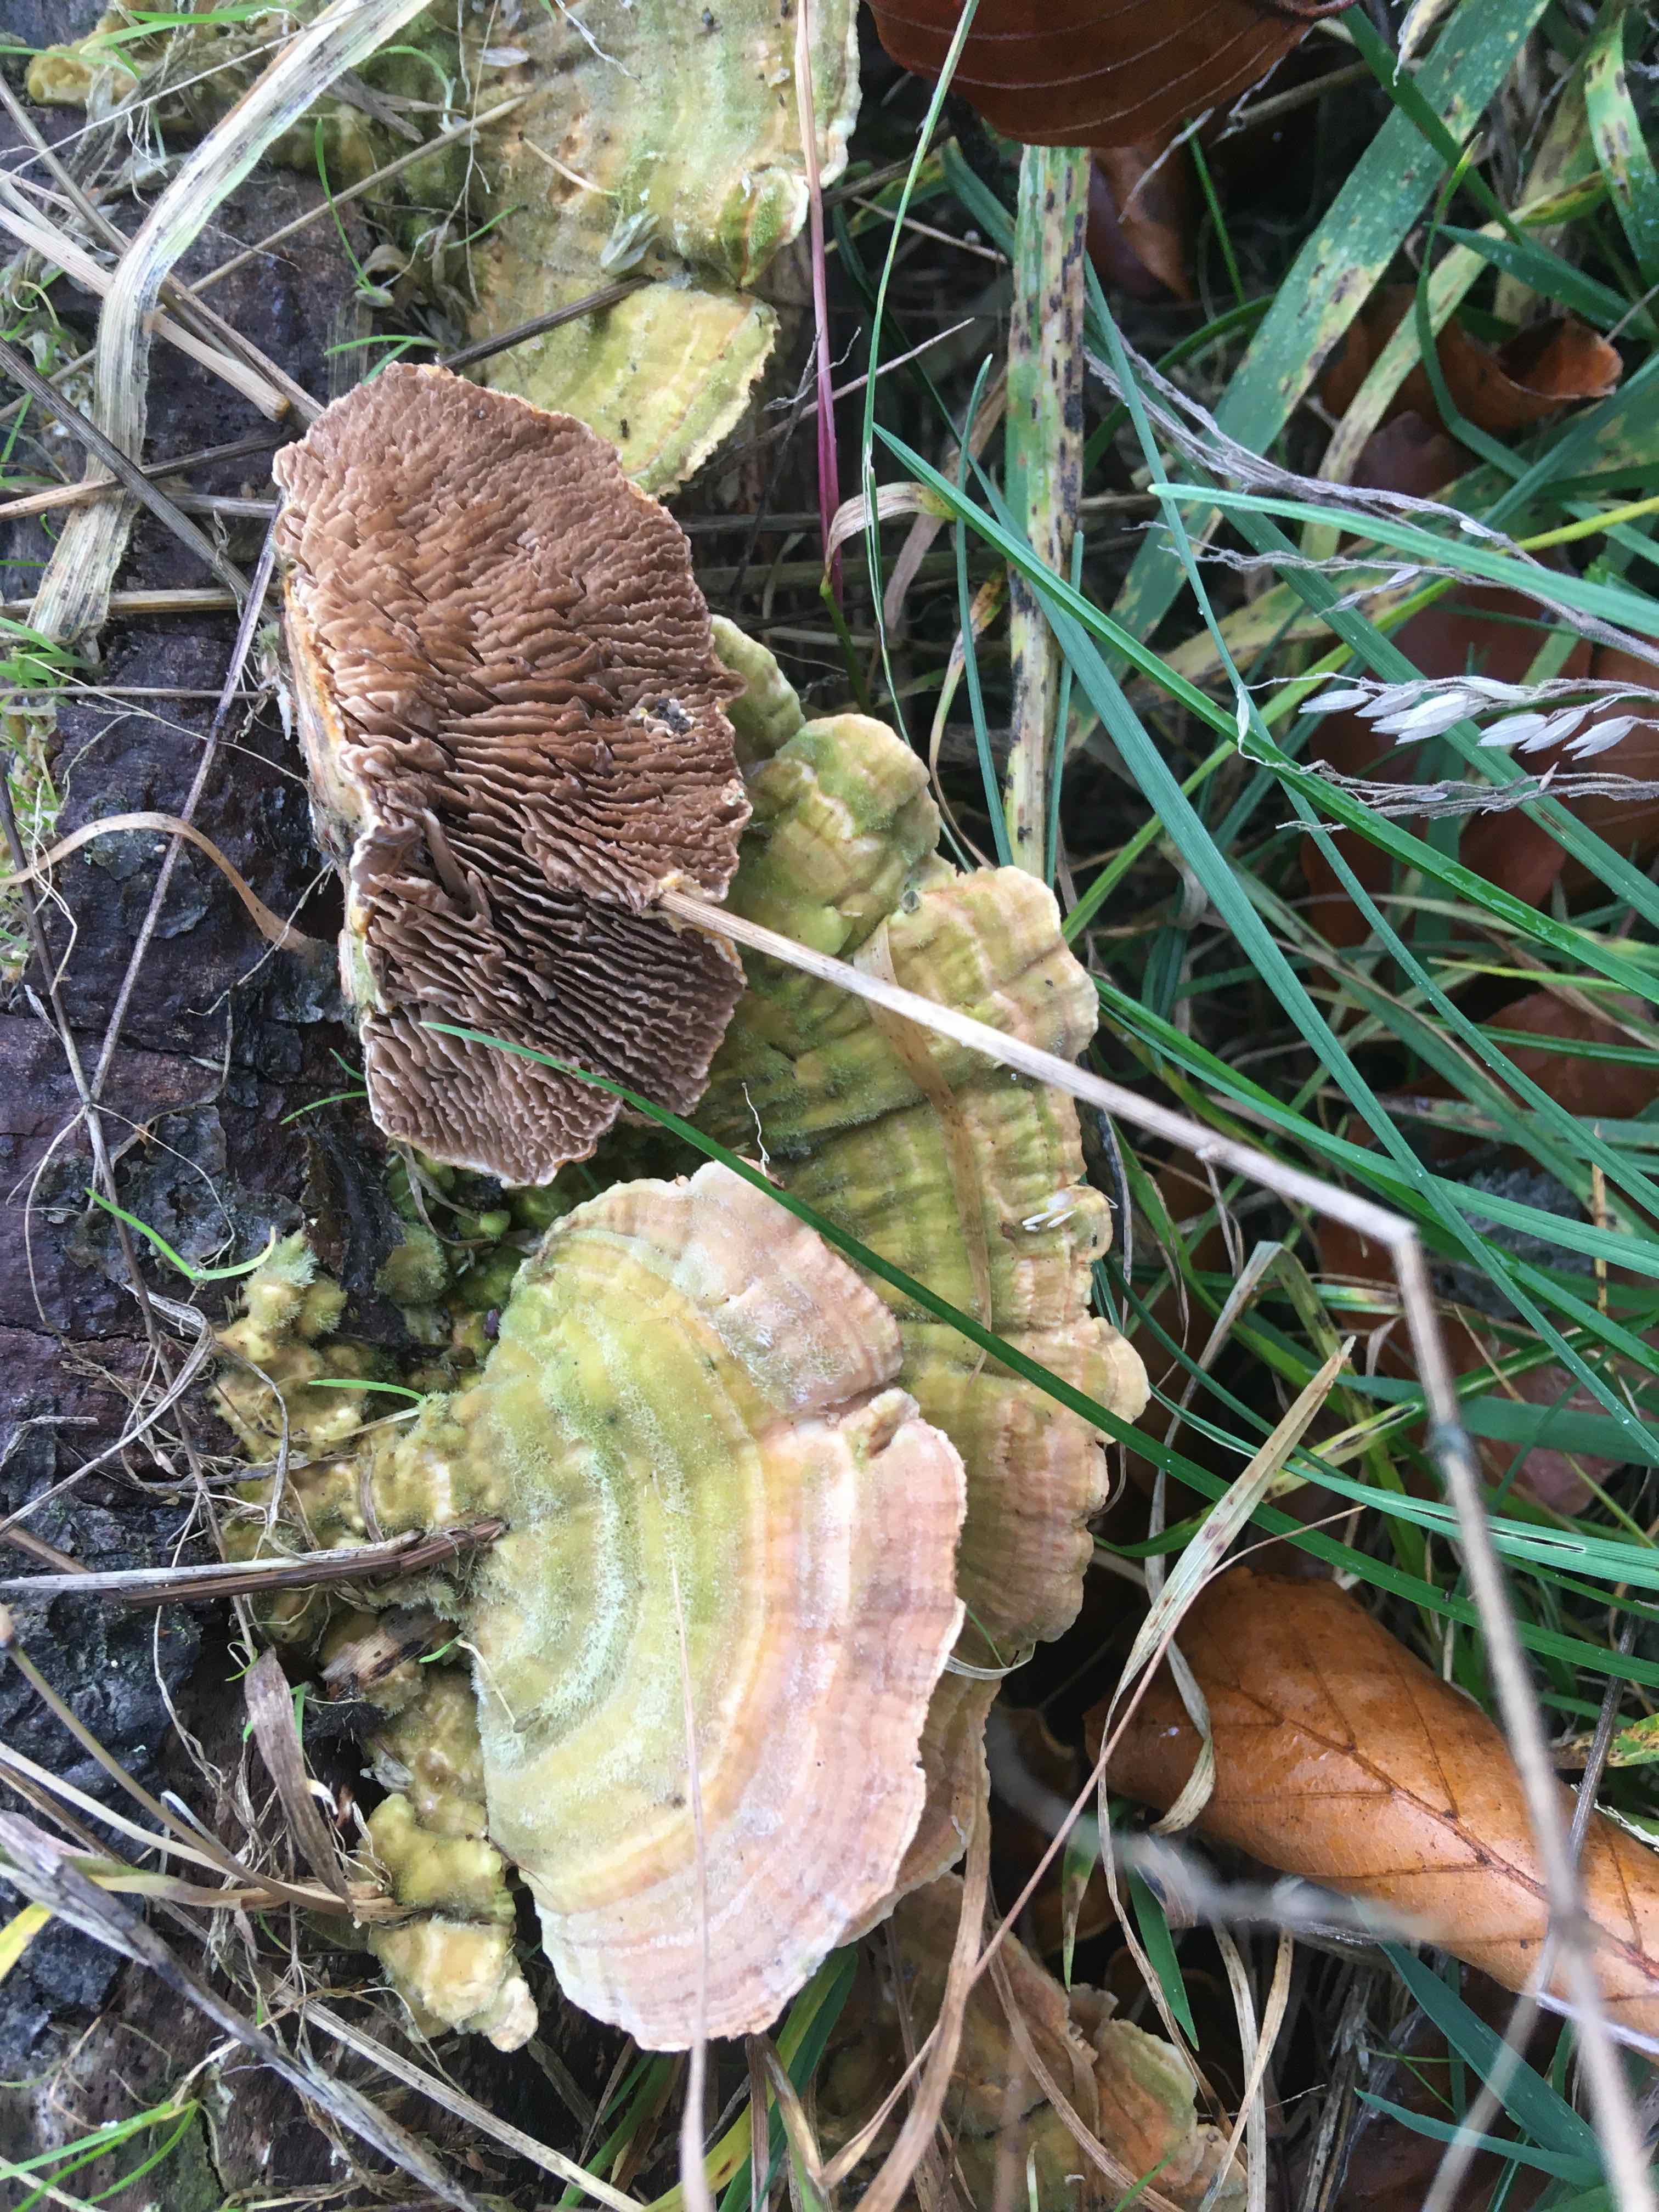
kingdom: Fungi
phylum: Basidiomycota
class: Agaricomycetes
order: Polyporales
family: Polyporaceae
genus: Lenzites
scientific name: Lenzites betulinus
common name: birke-læderporesvamp
